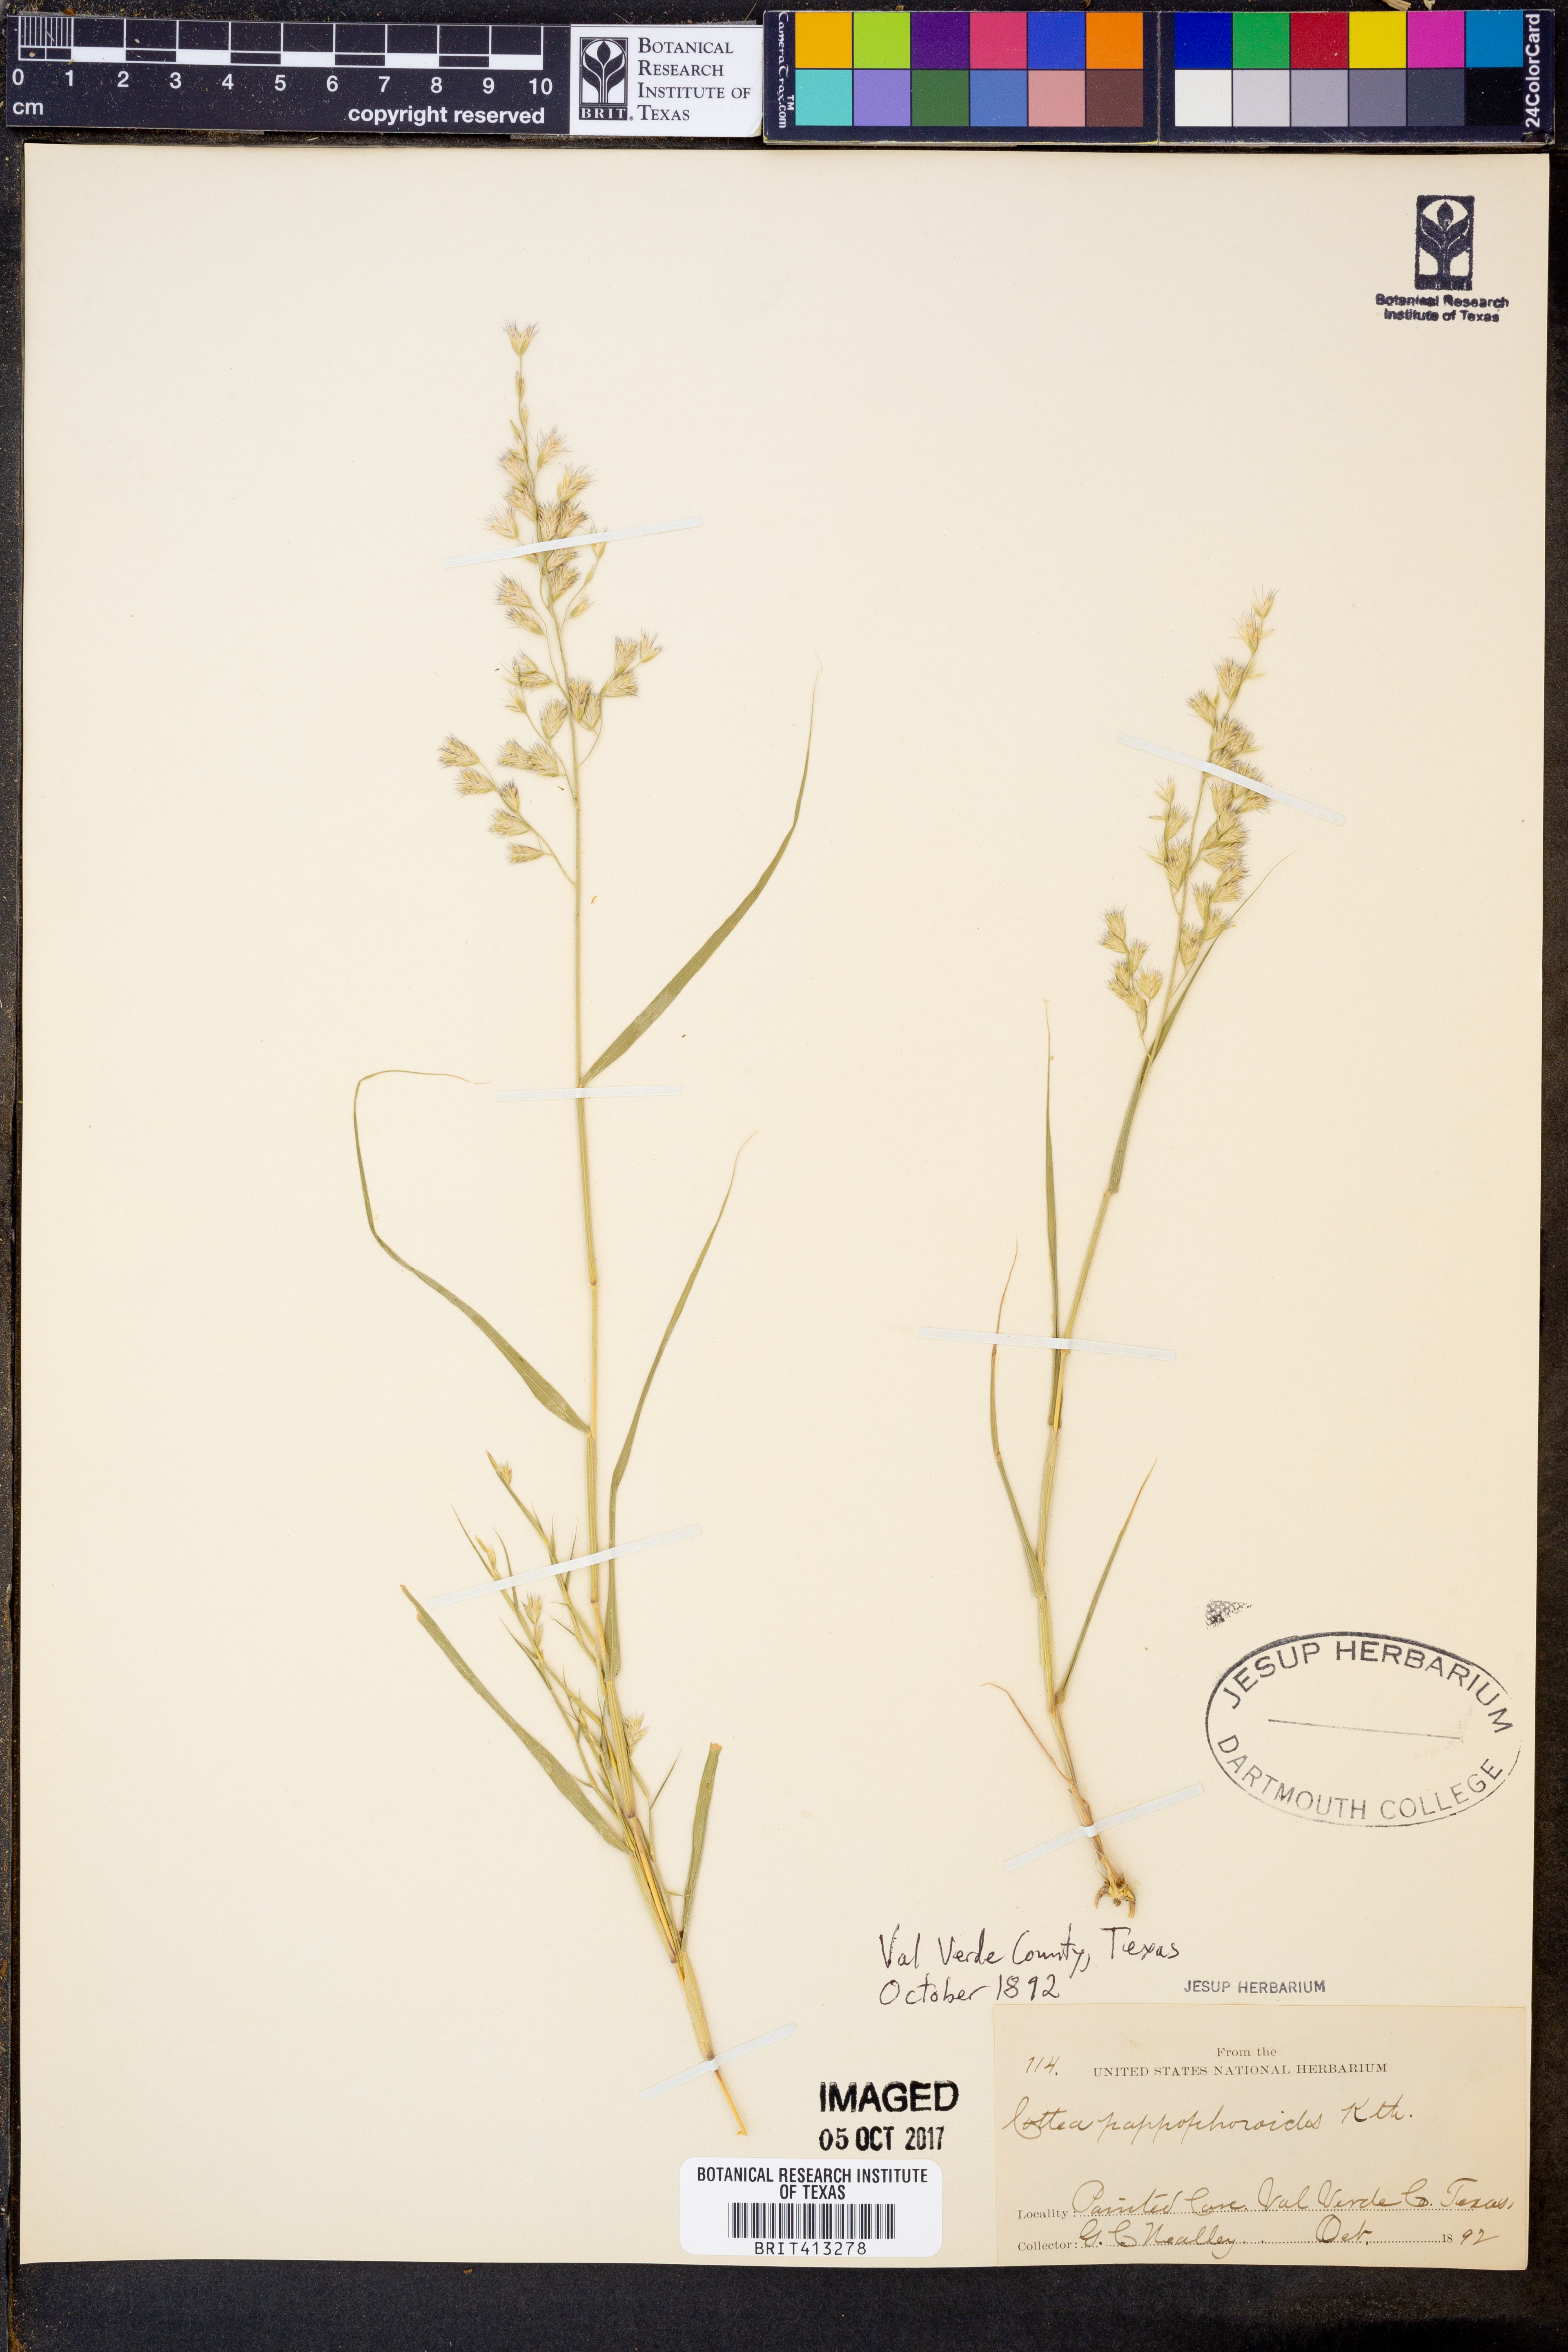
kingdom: Plantae
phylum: Tracheophyta
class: Liliopsida
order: Poales
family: Poaceae
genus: Cottea
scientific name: Cottea pappophoroides
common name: Cotta grass
